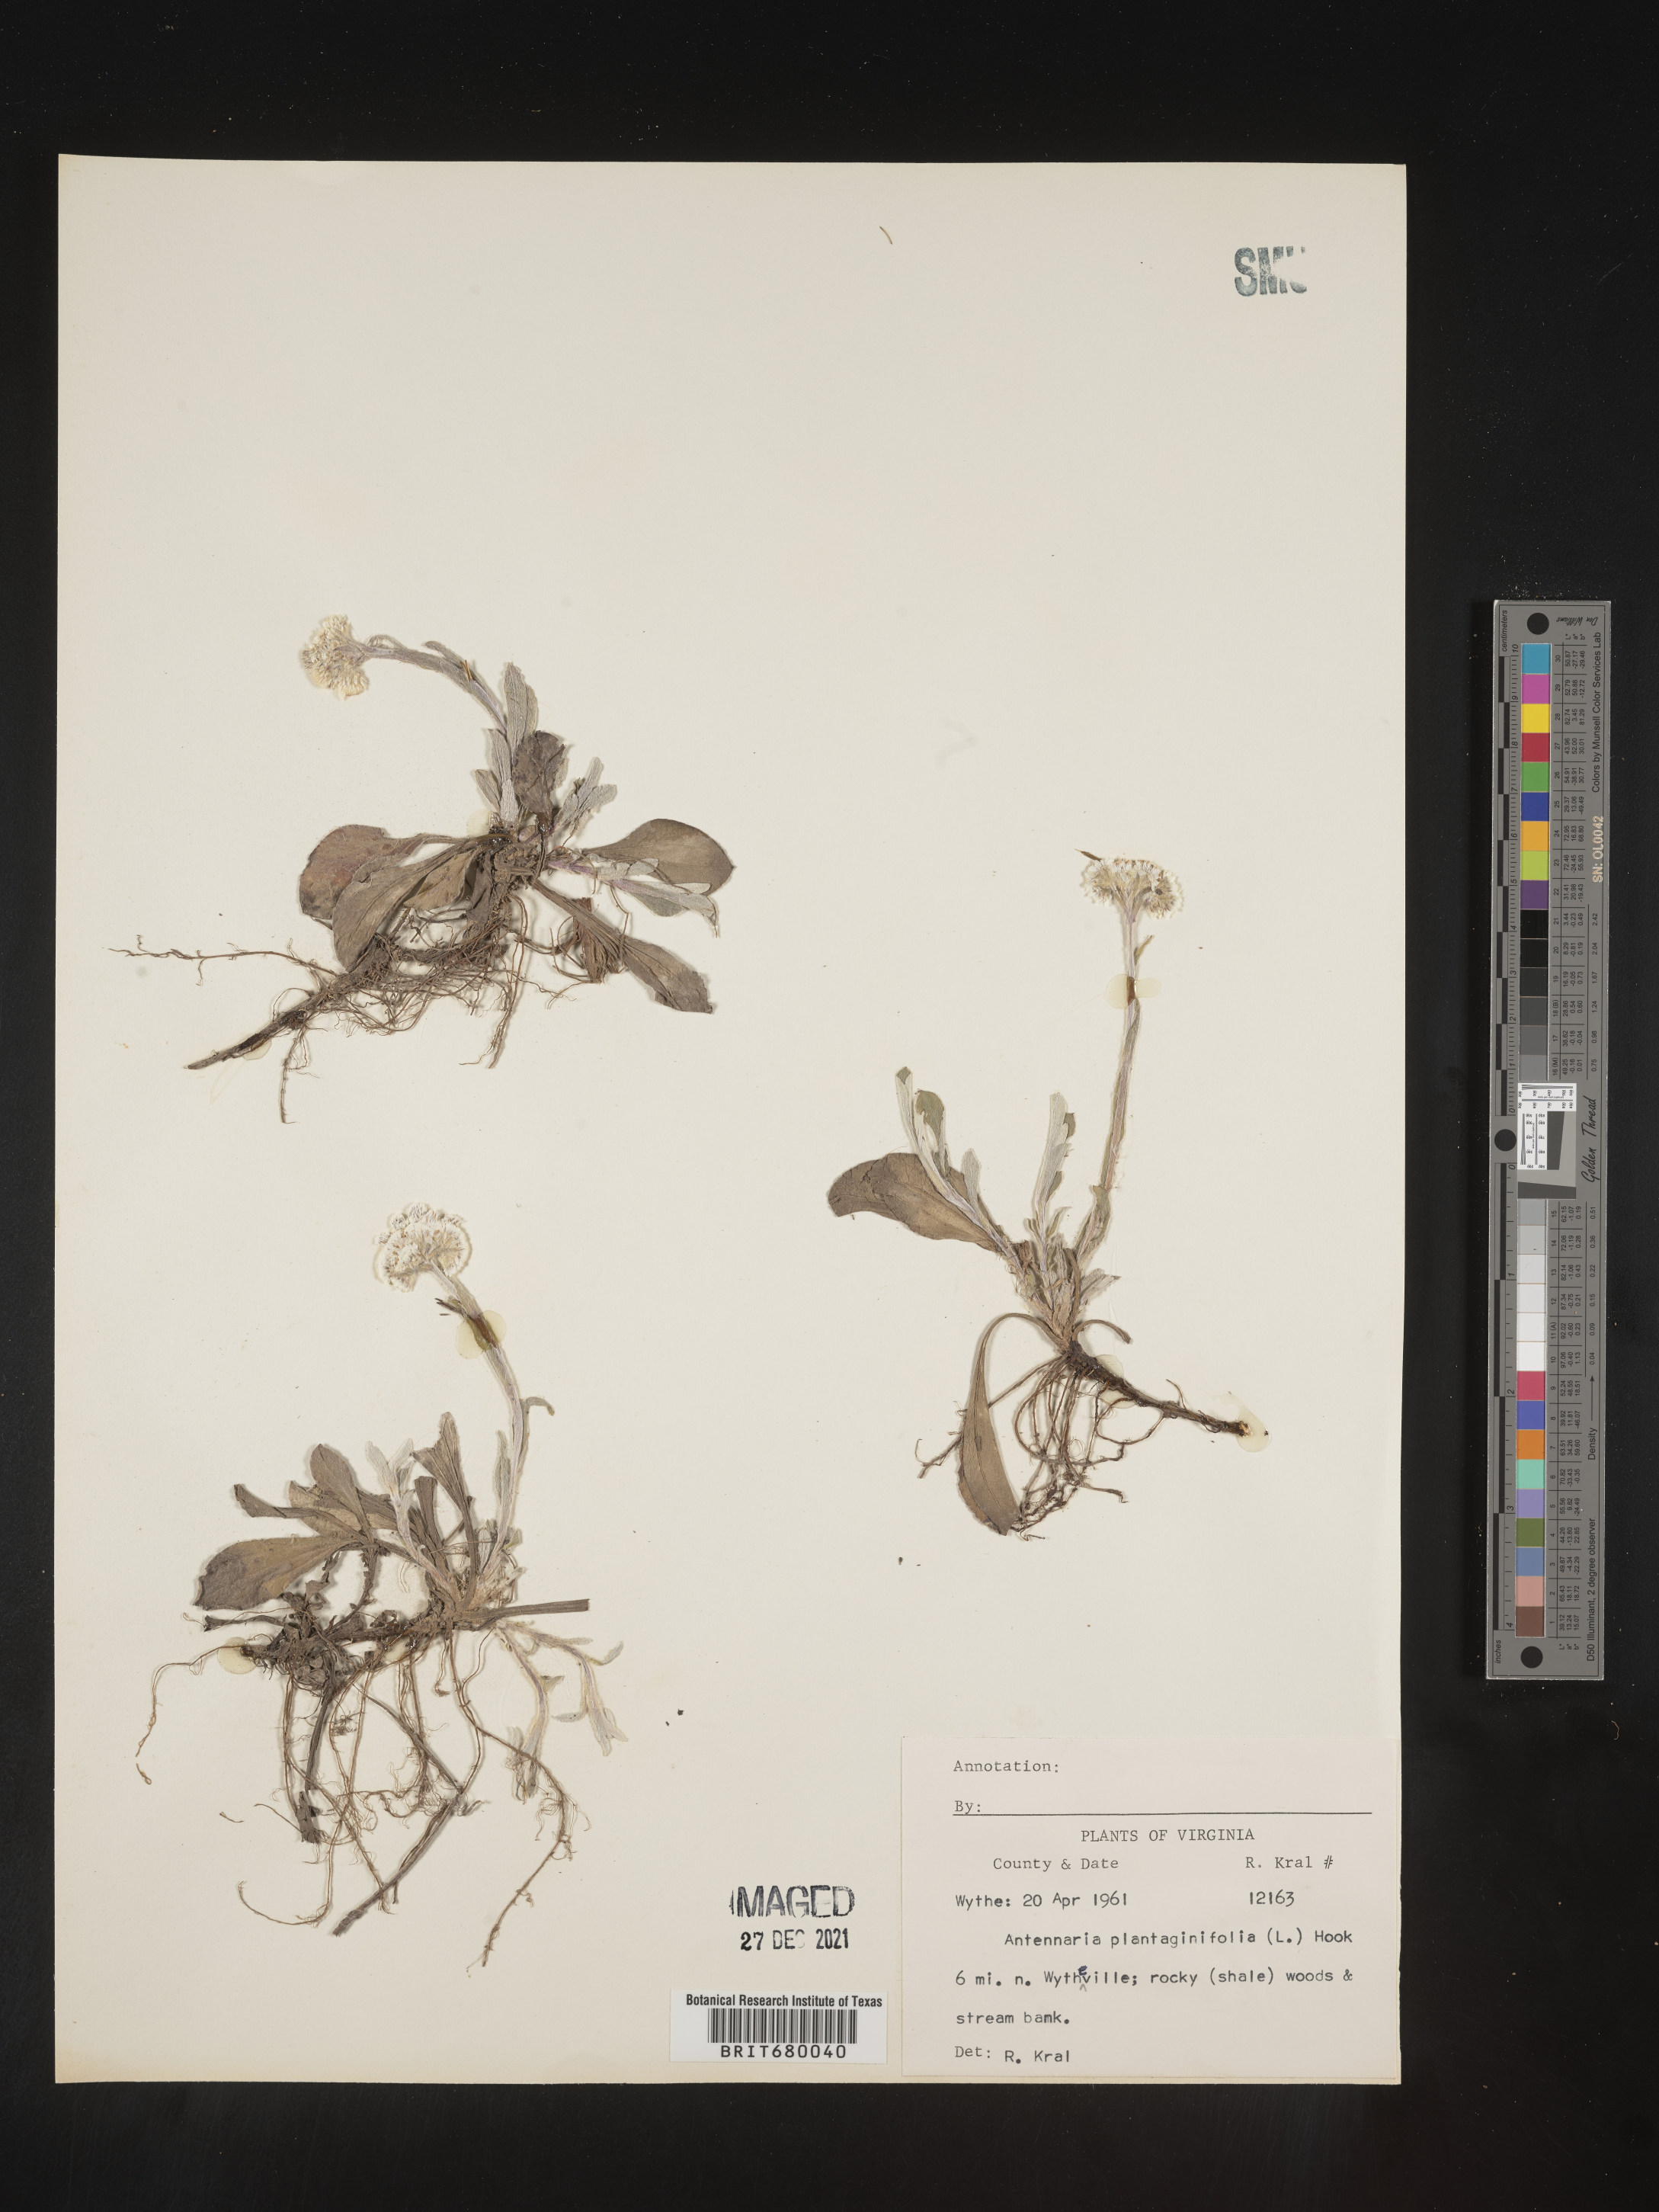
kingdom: Plantae
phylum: Tracheophyta
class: Magnoliopsida
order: Asterales
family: Asteraceae
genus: Antennaria
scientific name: Antennaria plantaginifolia
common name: Plantain-leaved pussytoes
